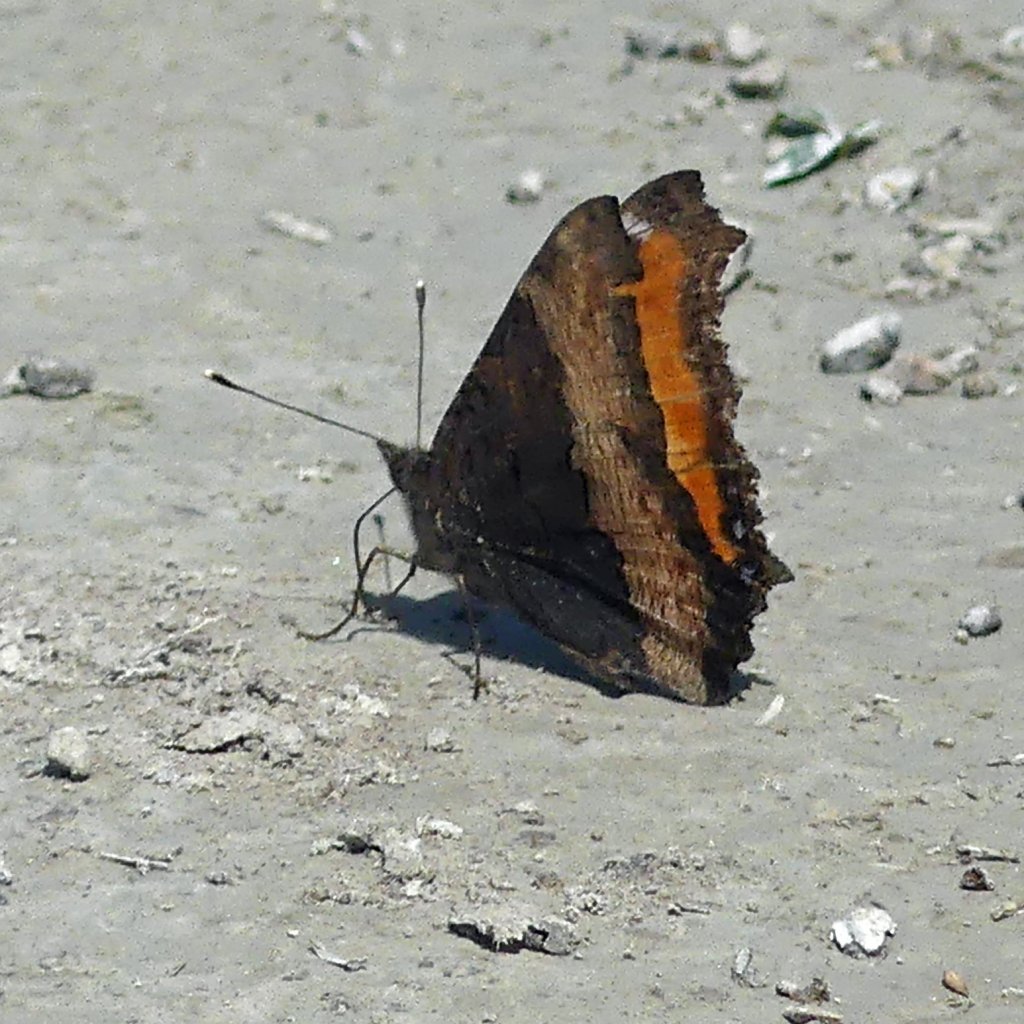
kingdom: Animalia
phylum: Arthropoda
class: Insecta
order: Lepidoptera
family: Nymphalidae
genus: Aglais
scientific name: Aglais milberti
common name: Milbert's Tortoiseshell
